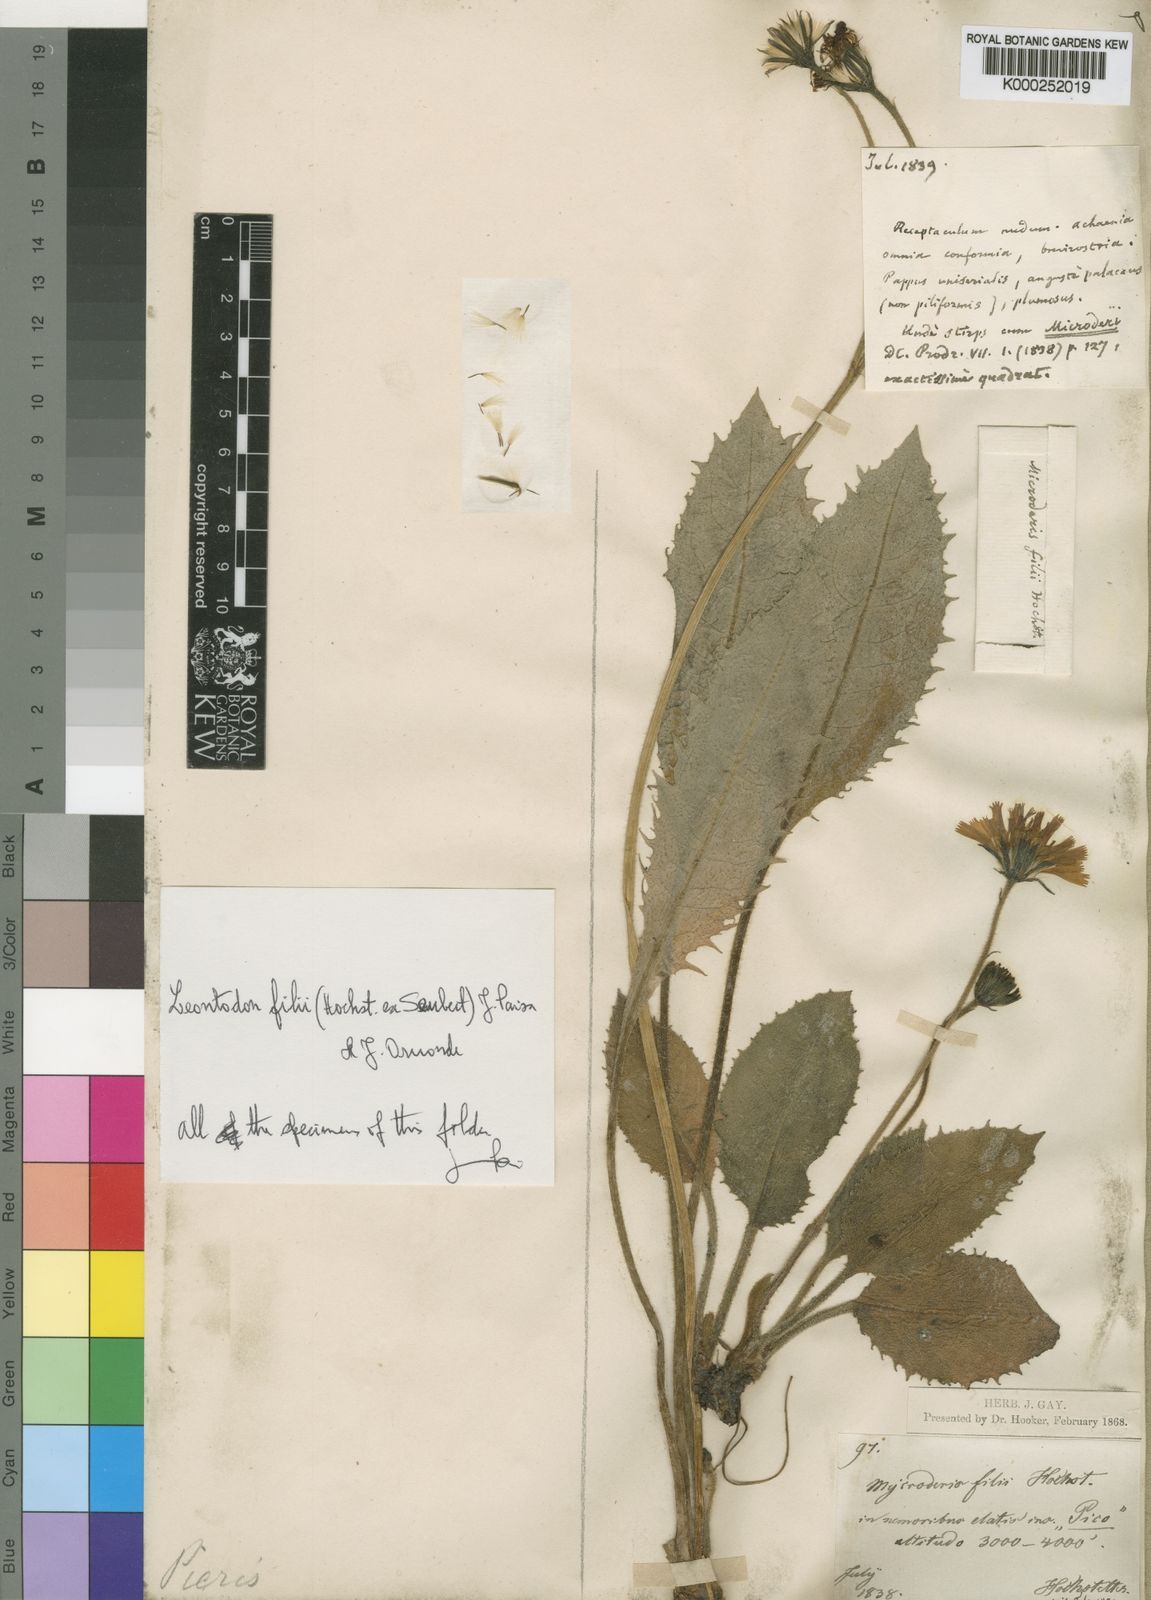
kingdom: Plantae
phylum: Tracheophyta
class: Magnoliopsida
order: Asterales
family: Asteraceae
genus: Leontodon
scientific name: Leontodon filii
